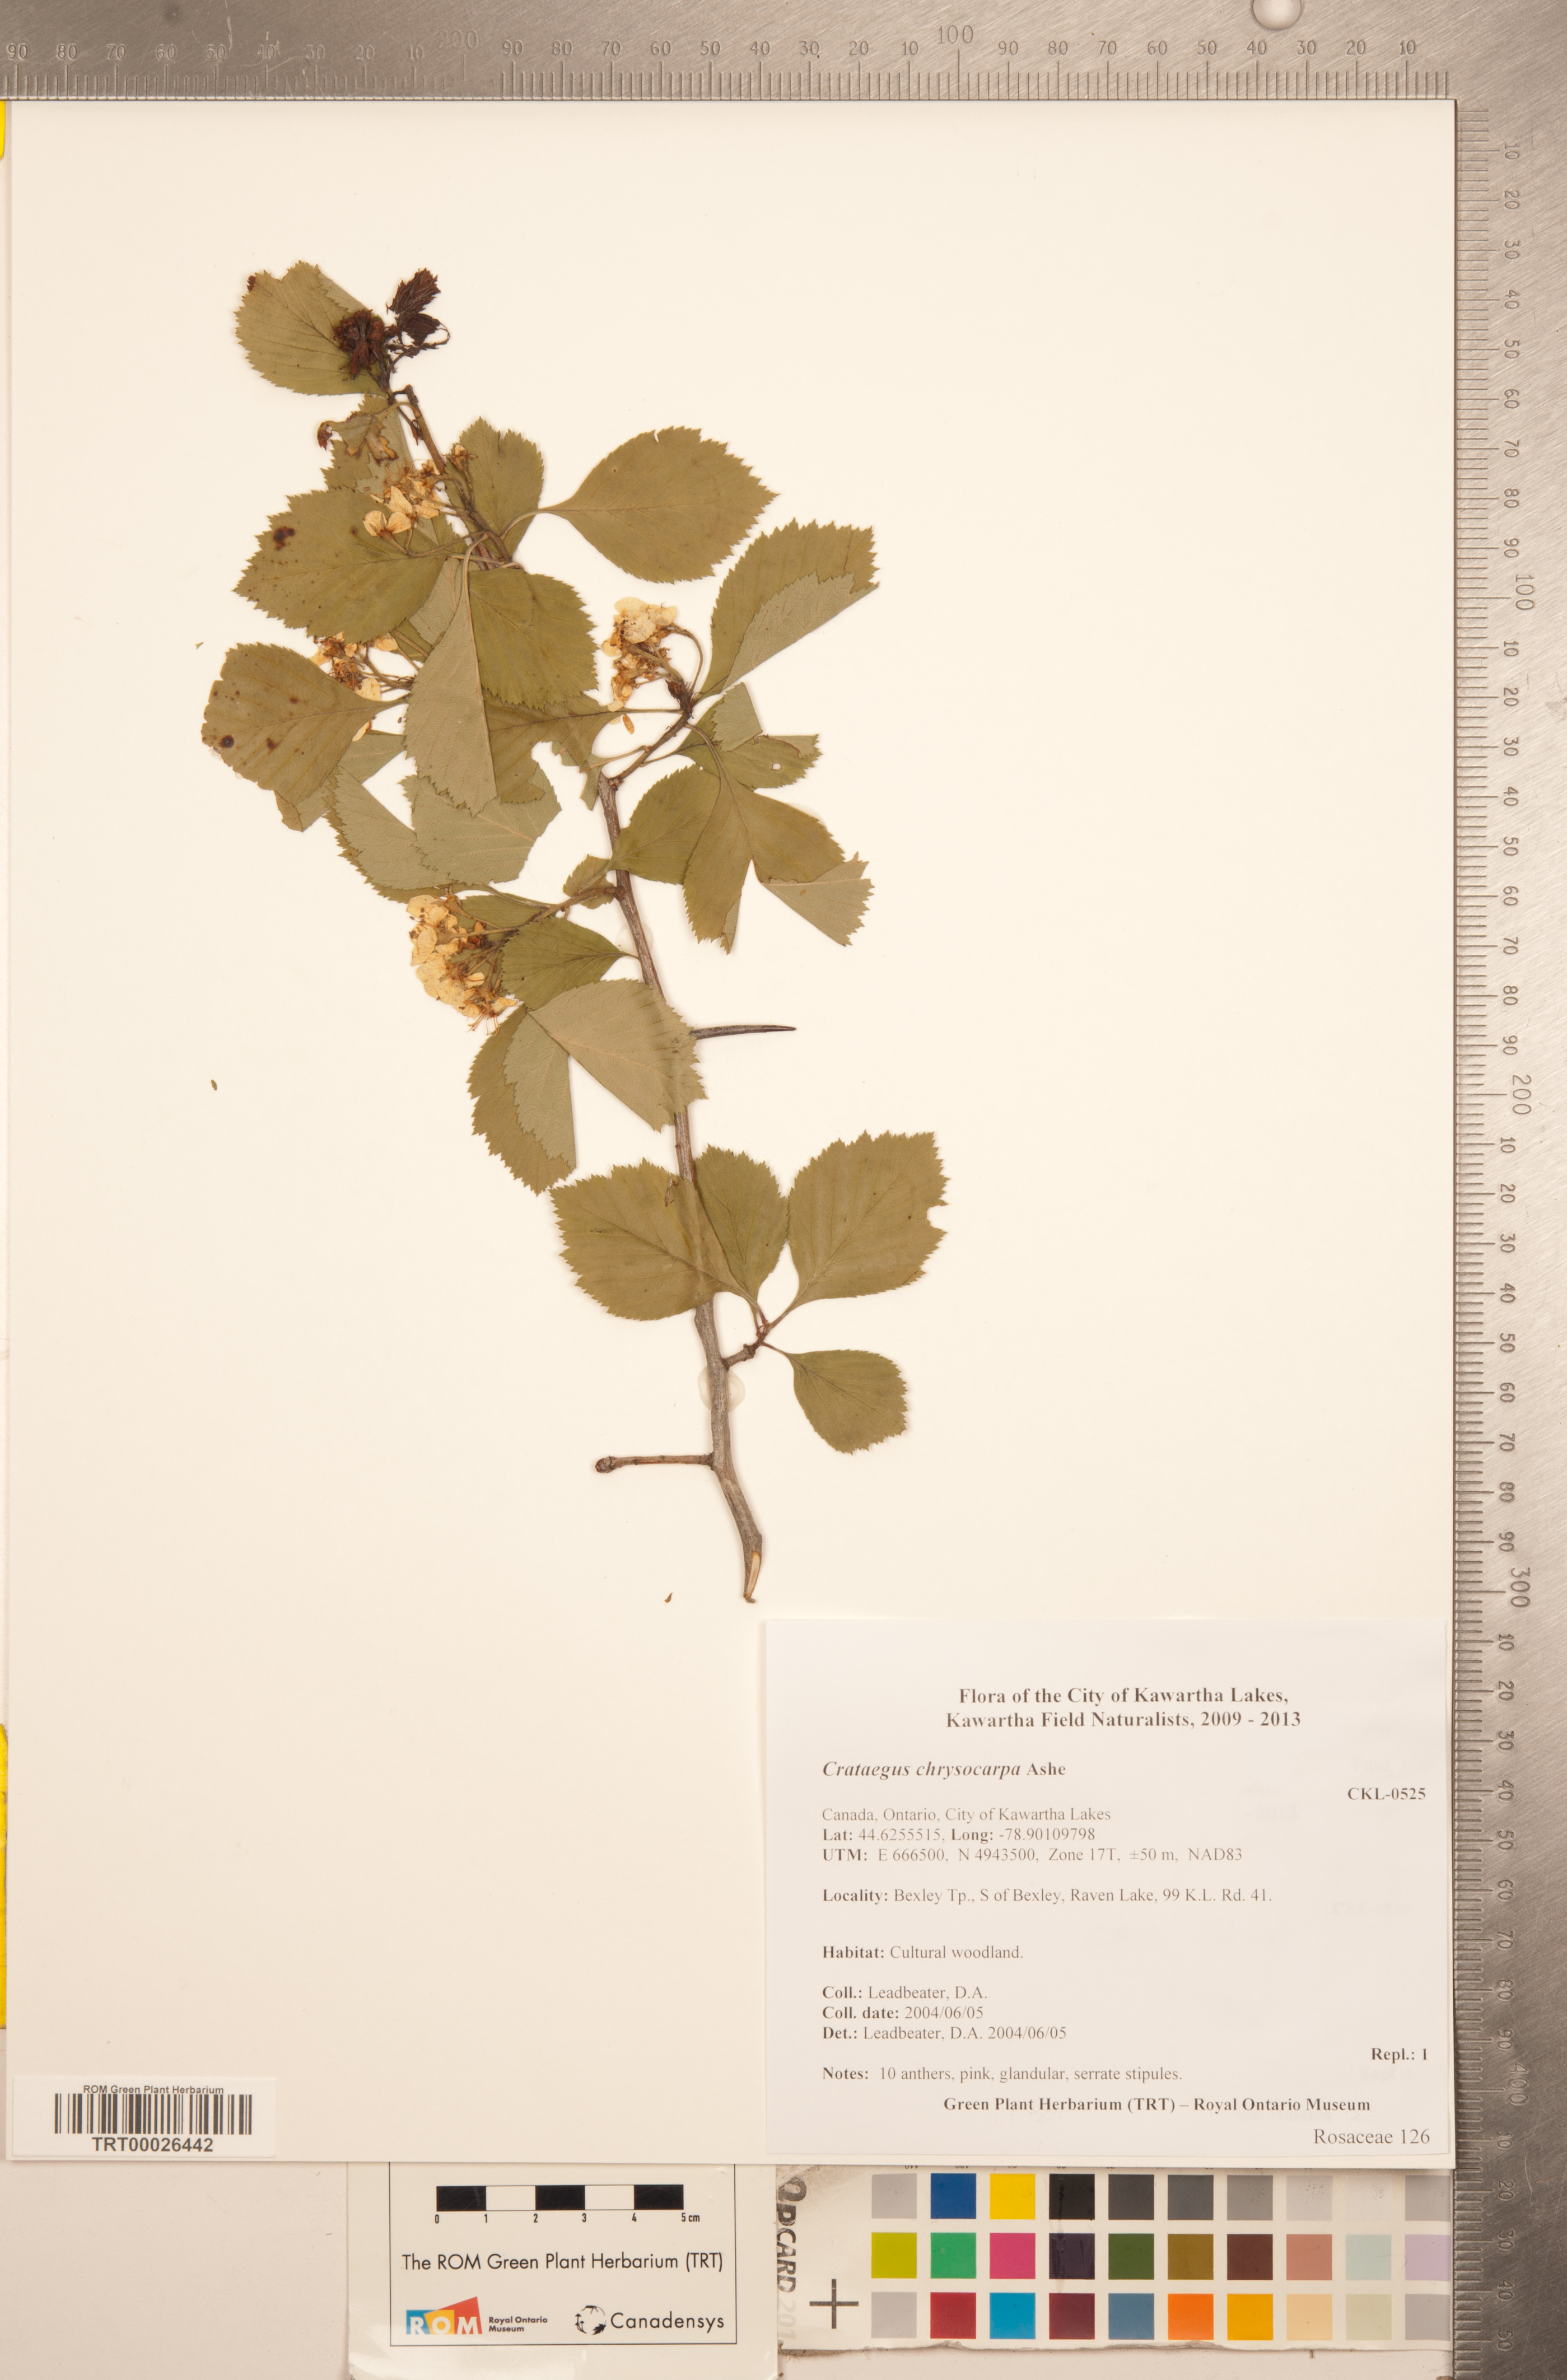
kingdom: Plantae
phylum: Tracheophyta
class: Magnoliopsida
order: Rosales
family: Rosaceae
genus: Crataegus
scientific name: Crataegus chrysocarpa
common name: Fire-berry hawthorn
